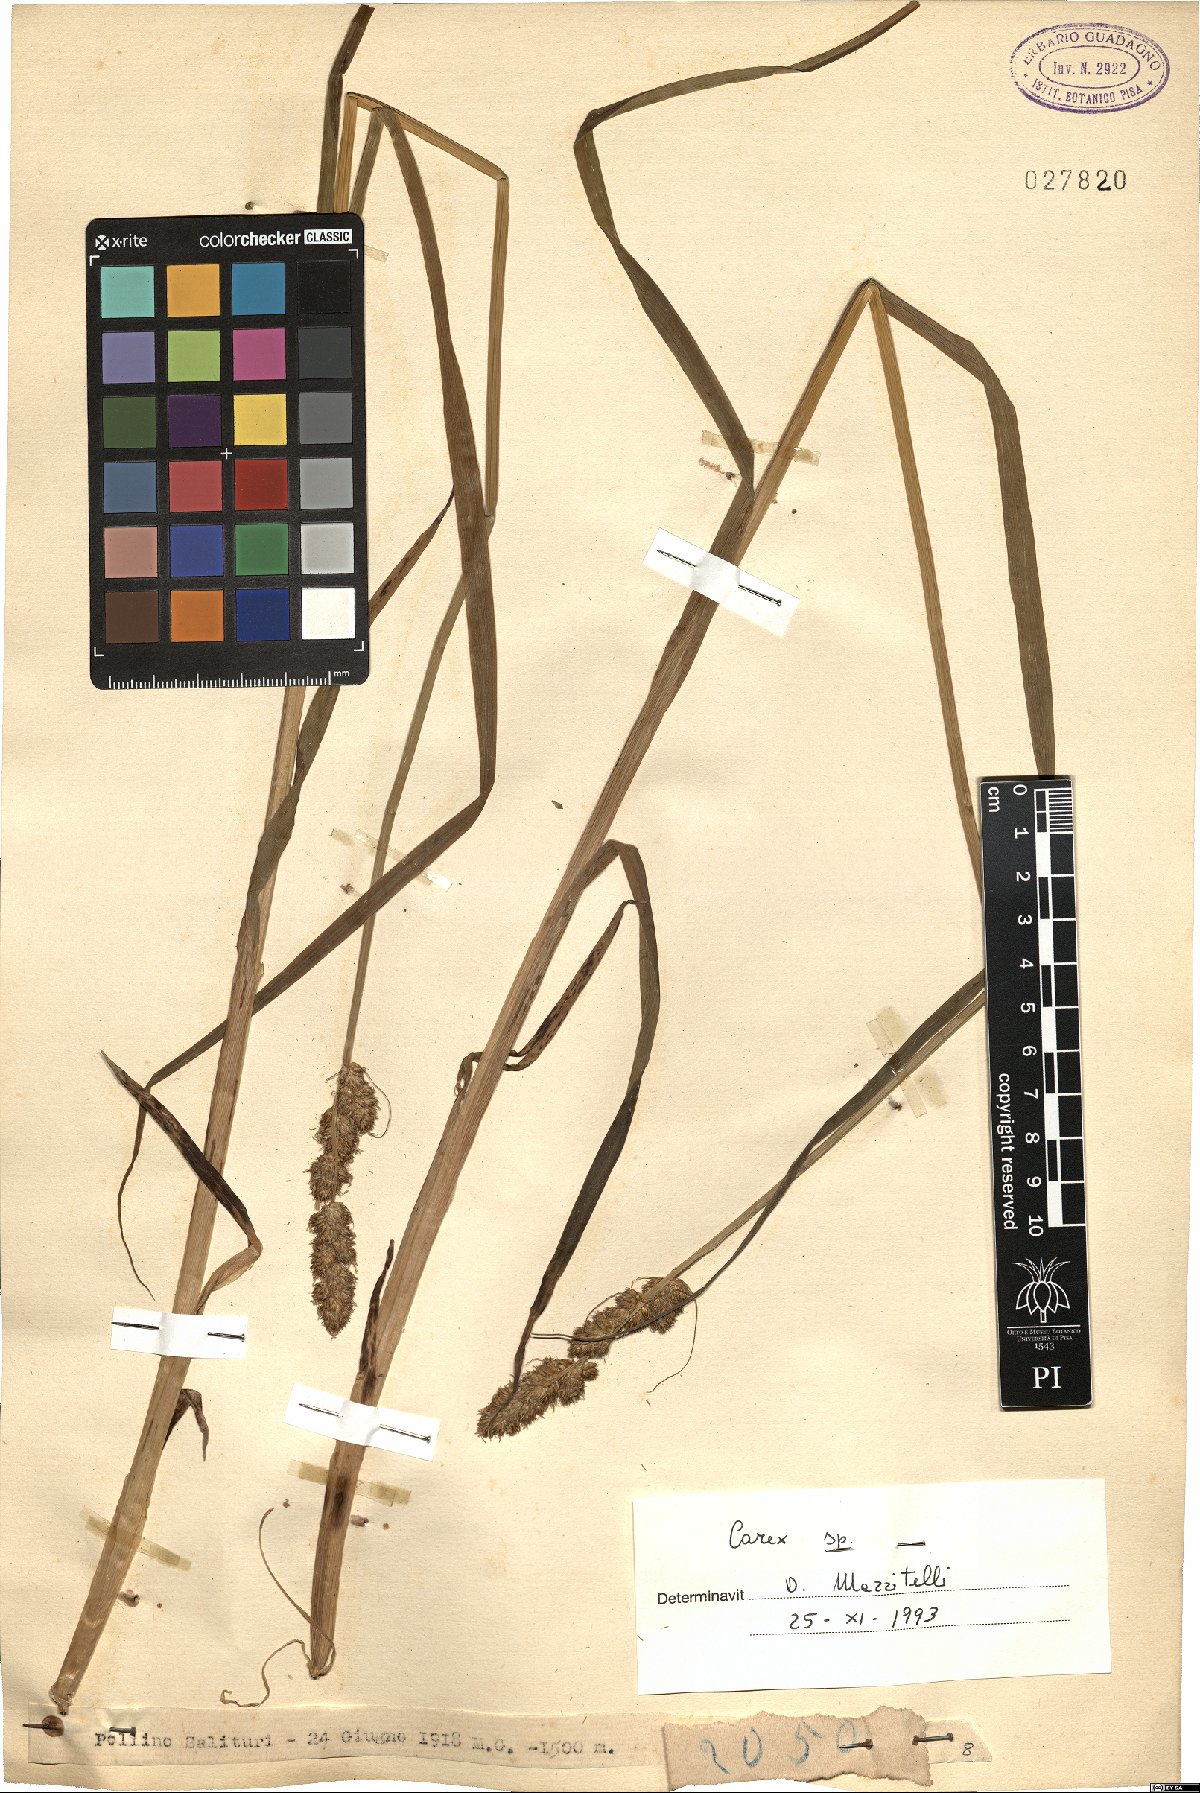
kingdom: Plantae
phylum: Tracheophyta
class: Liliopsida
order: Poales
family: Cyperaceae
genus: Carex
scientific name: Carex
